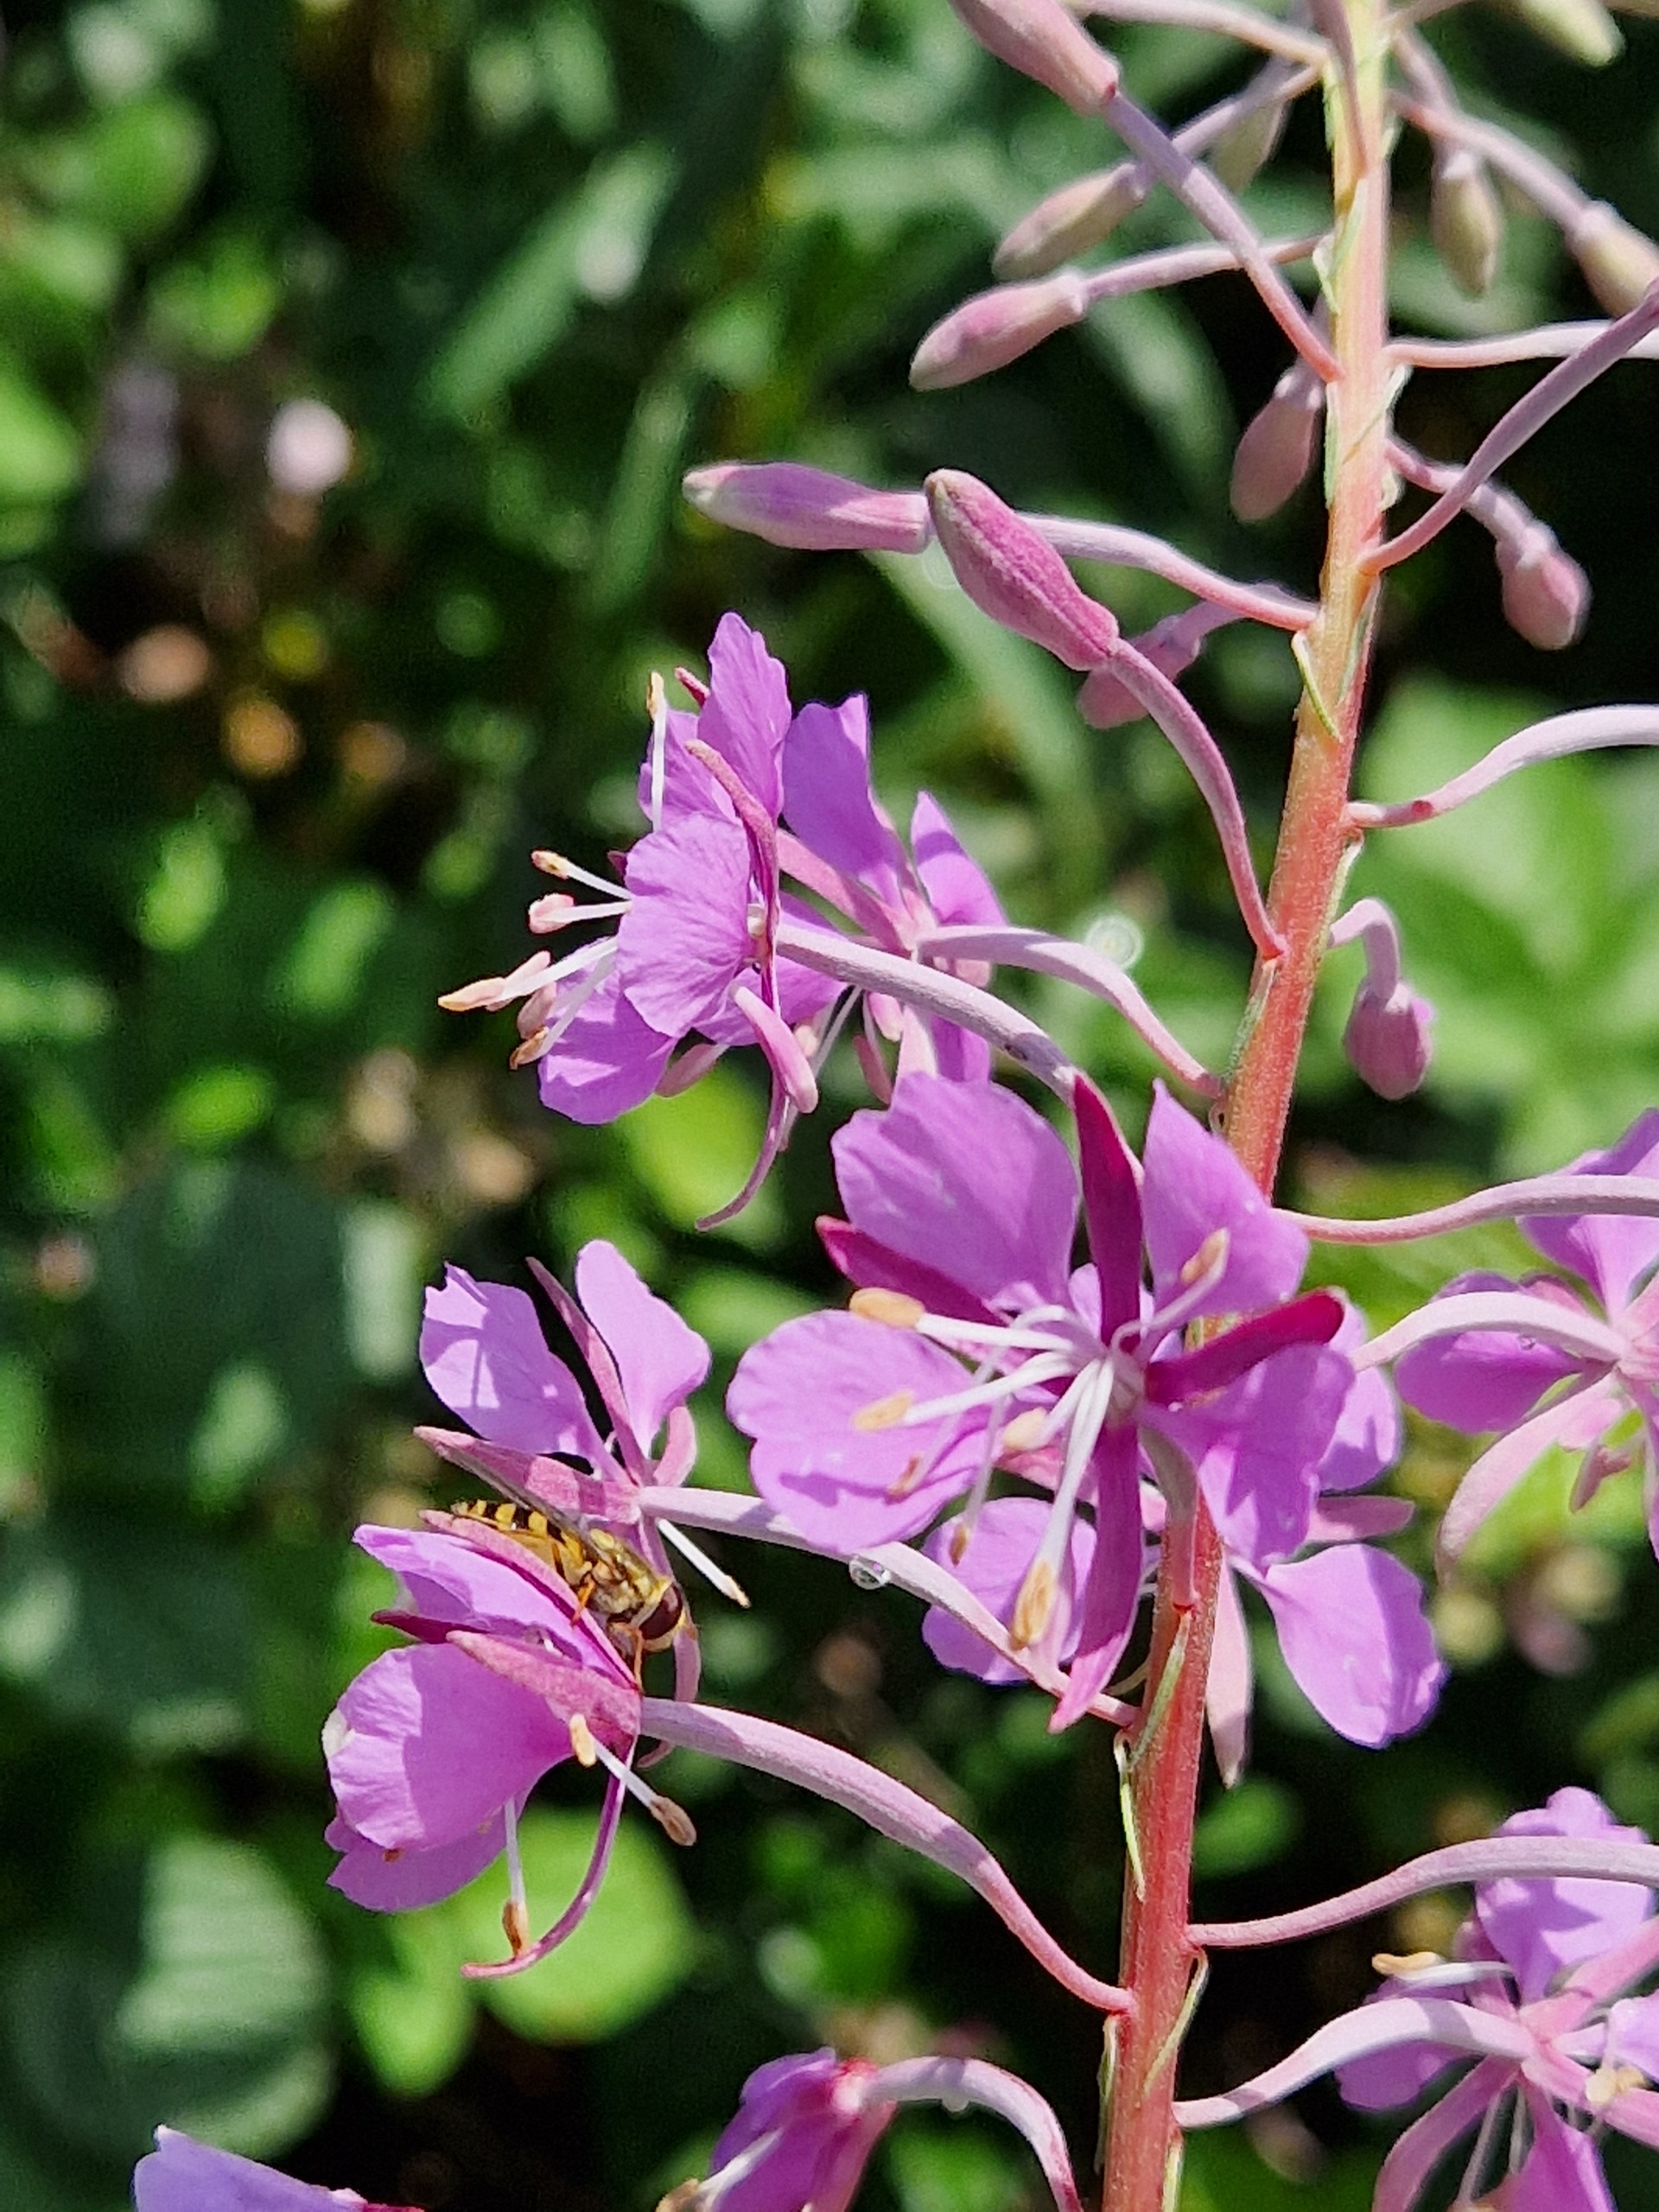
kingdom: Plantae
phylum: Tracheophyta
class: Magnoliopsida
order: Myrtales
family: Onagraceae
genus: Chamaenerion
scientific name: Chamaenerion angustifolium
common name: Gederams
